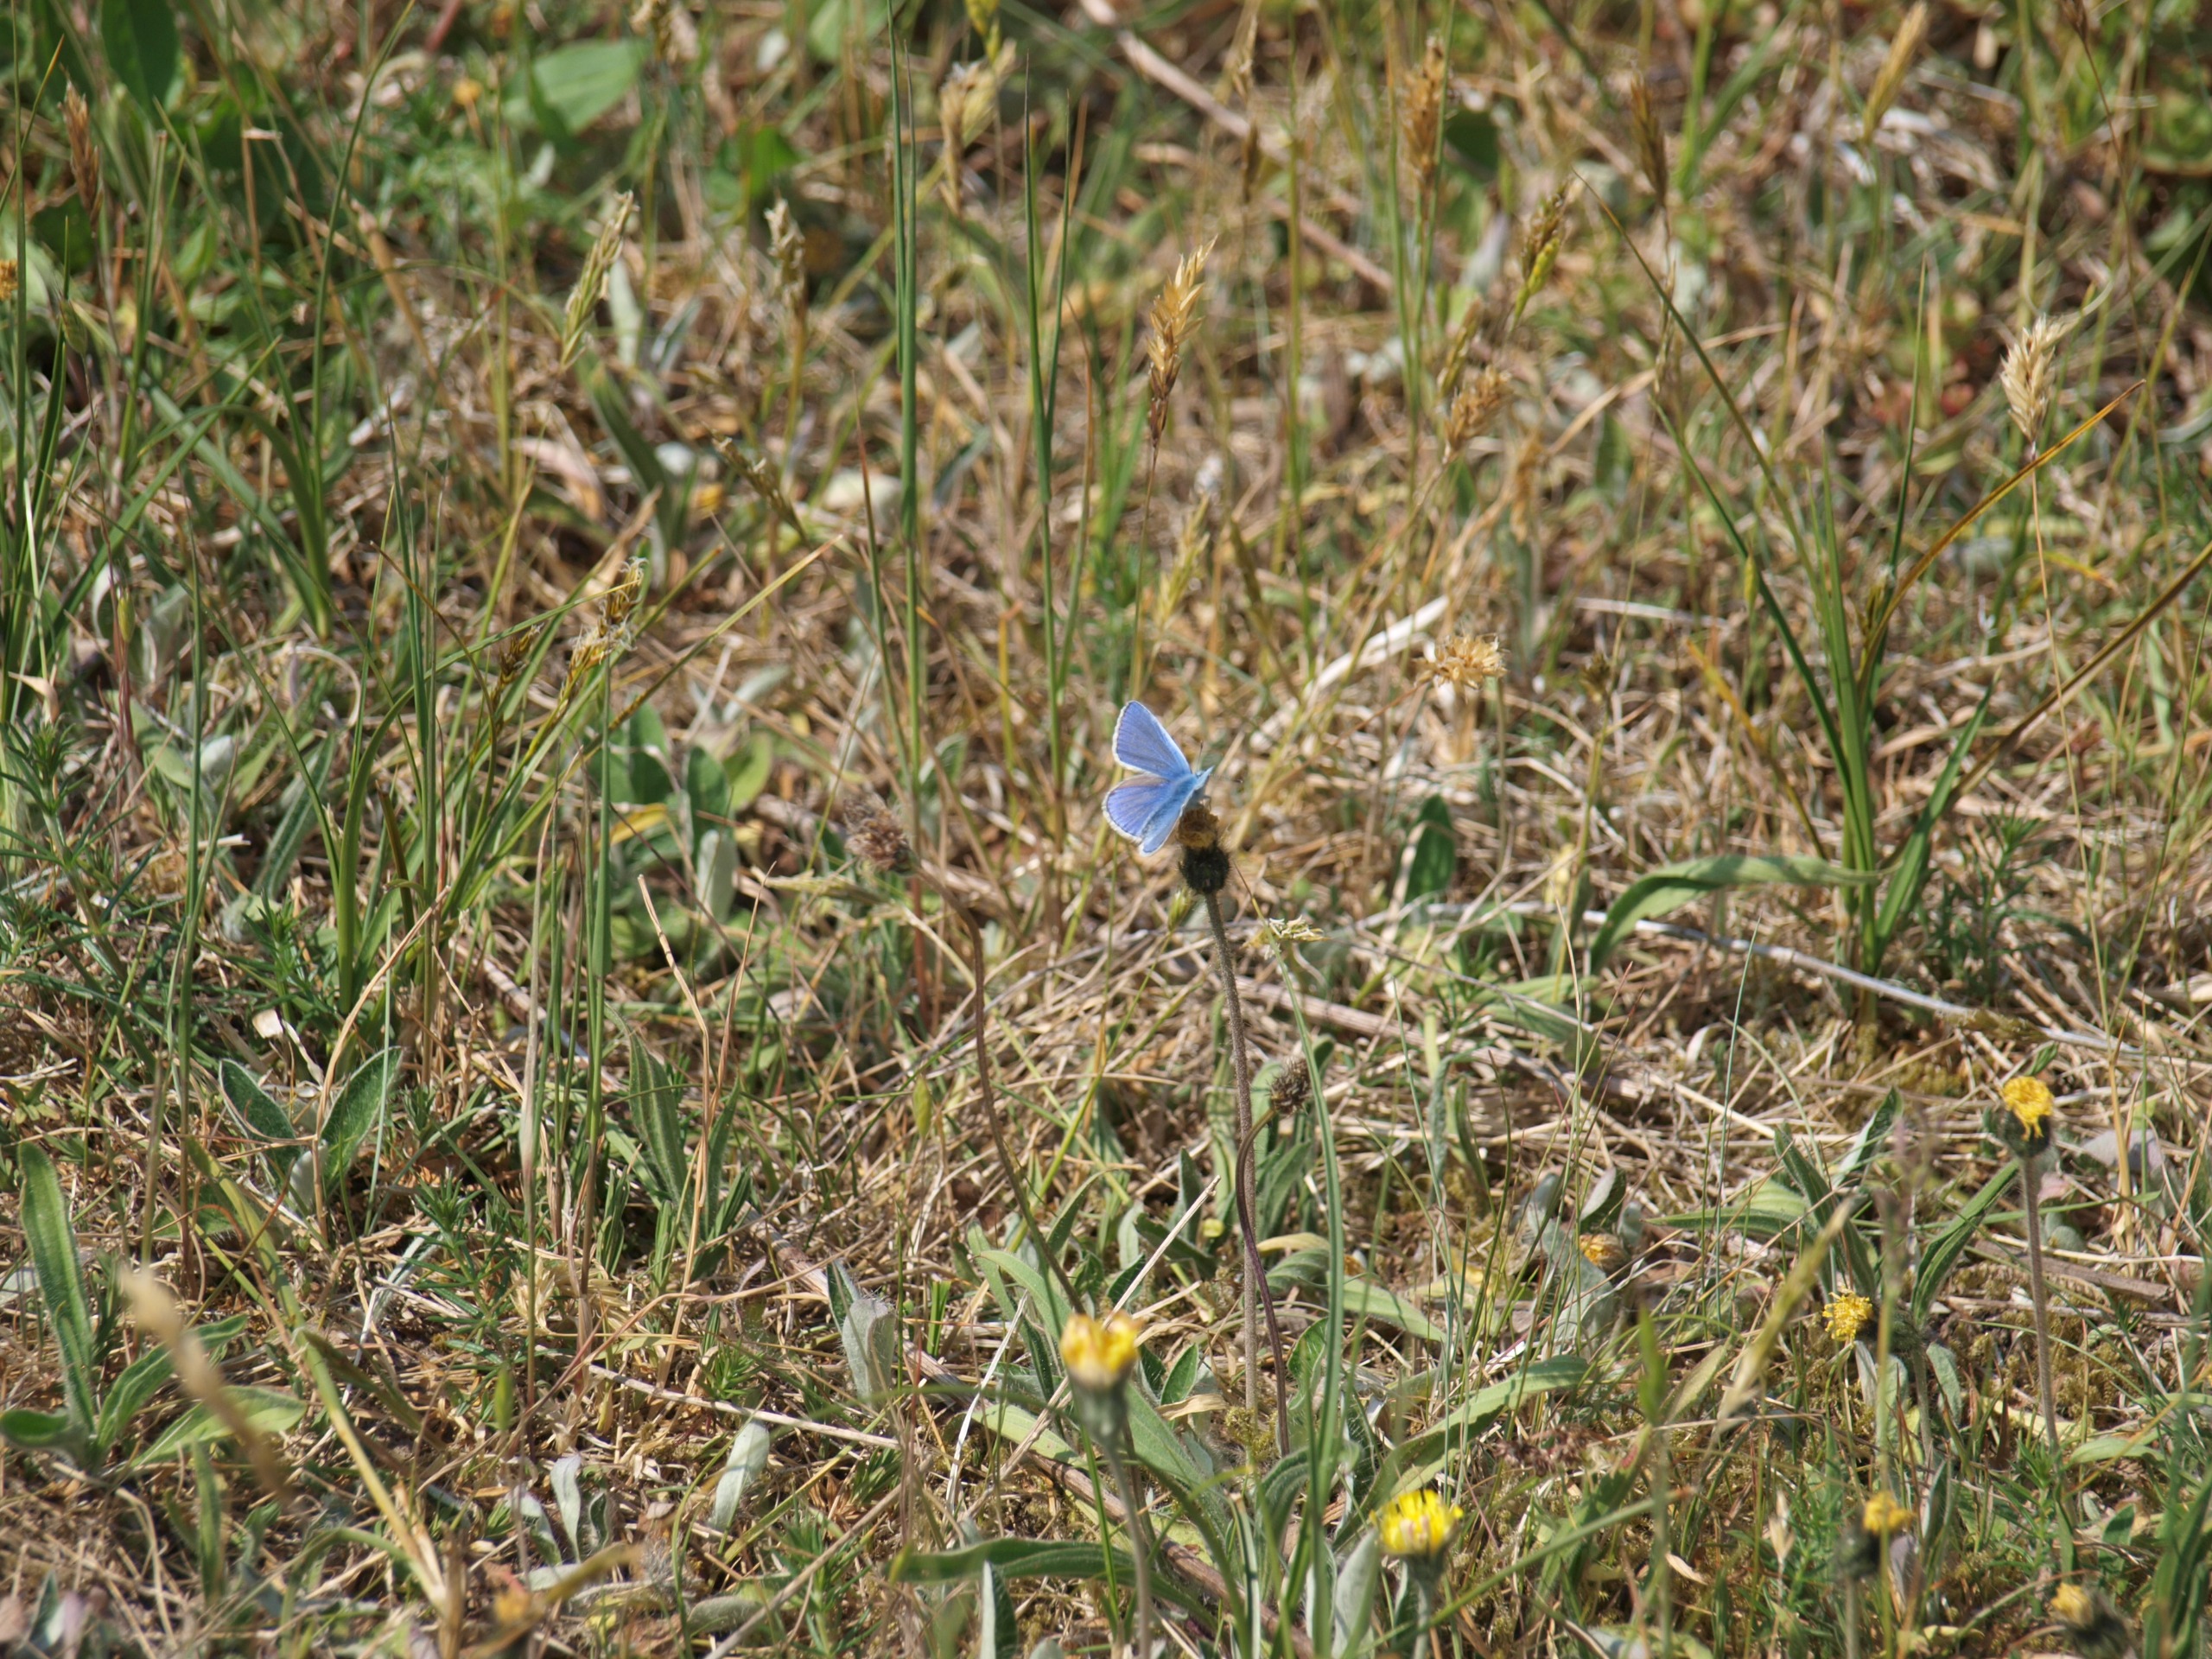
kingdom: Animalia
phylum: Arthropoda
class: Insecta
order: Lepidoptera
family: Lycaenidae
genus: Polyommatus
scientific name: Polyommatus icarus
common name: Almindelig blåfugl
